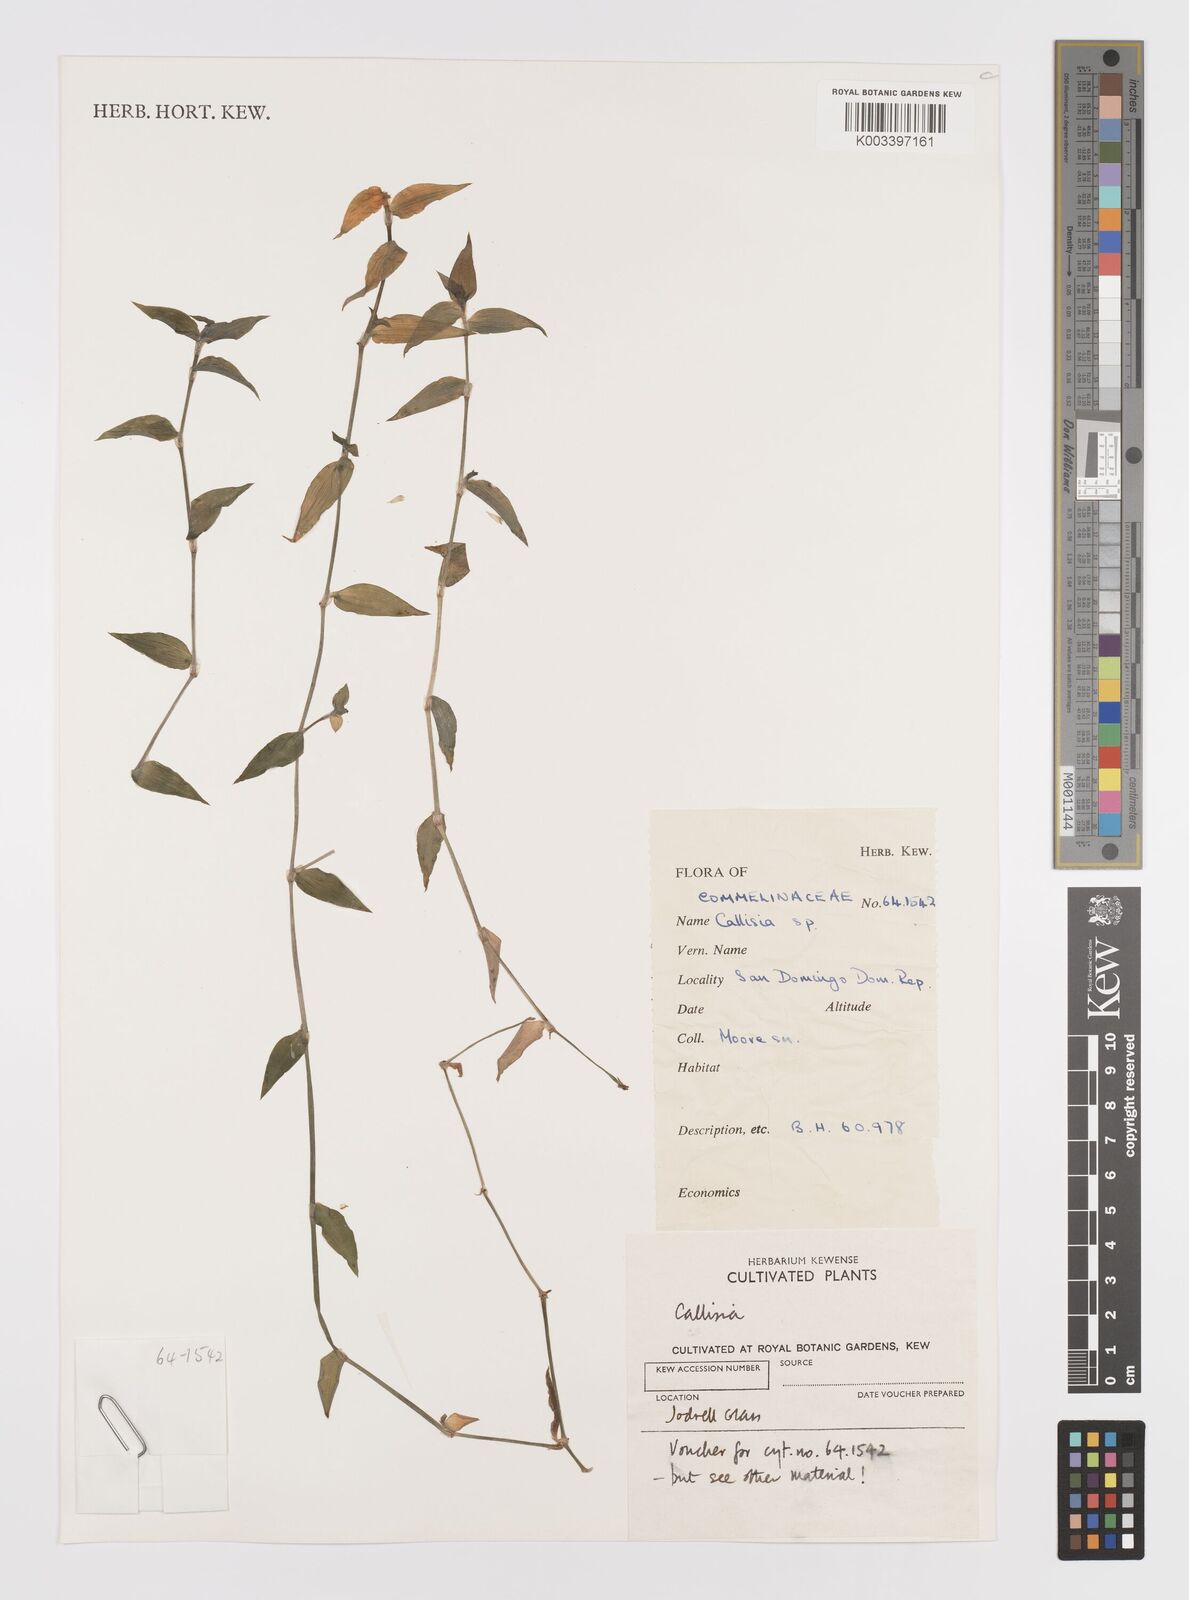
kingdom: Plantae
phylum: Tracheophyta
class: Liliopsida
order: Commelinales
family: Commelinaceae
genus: Callisia
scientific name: Callisia
